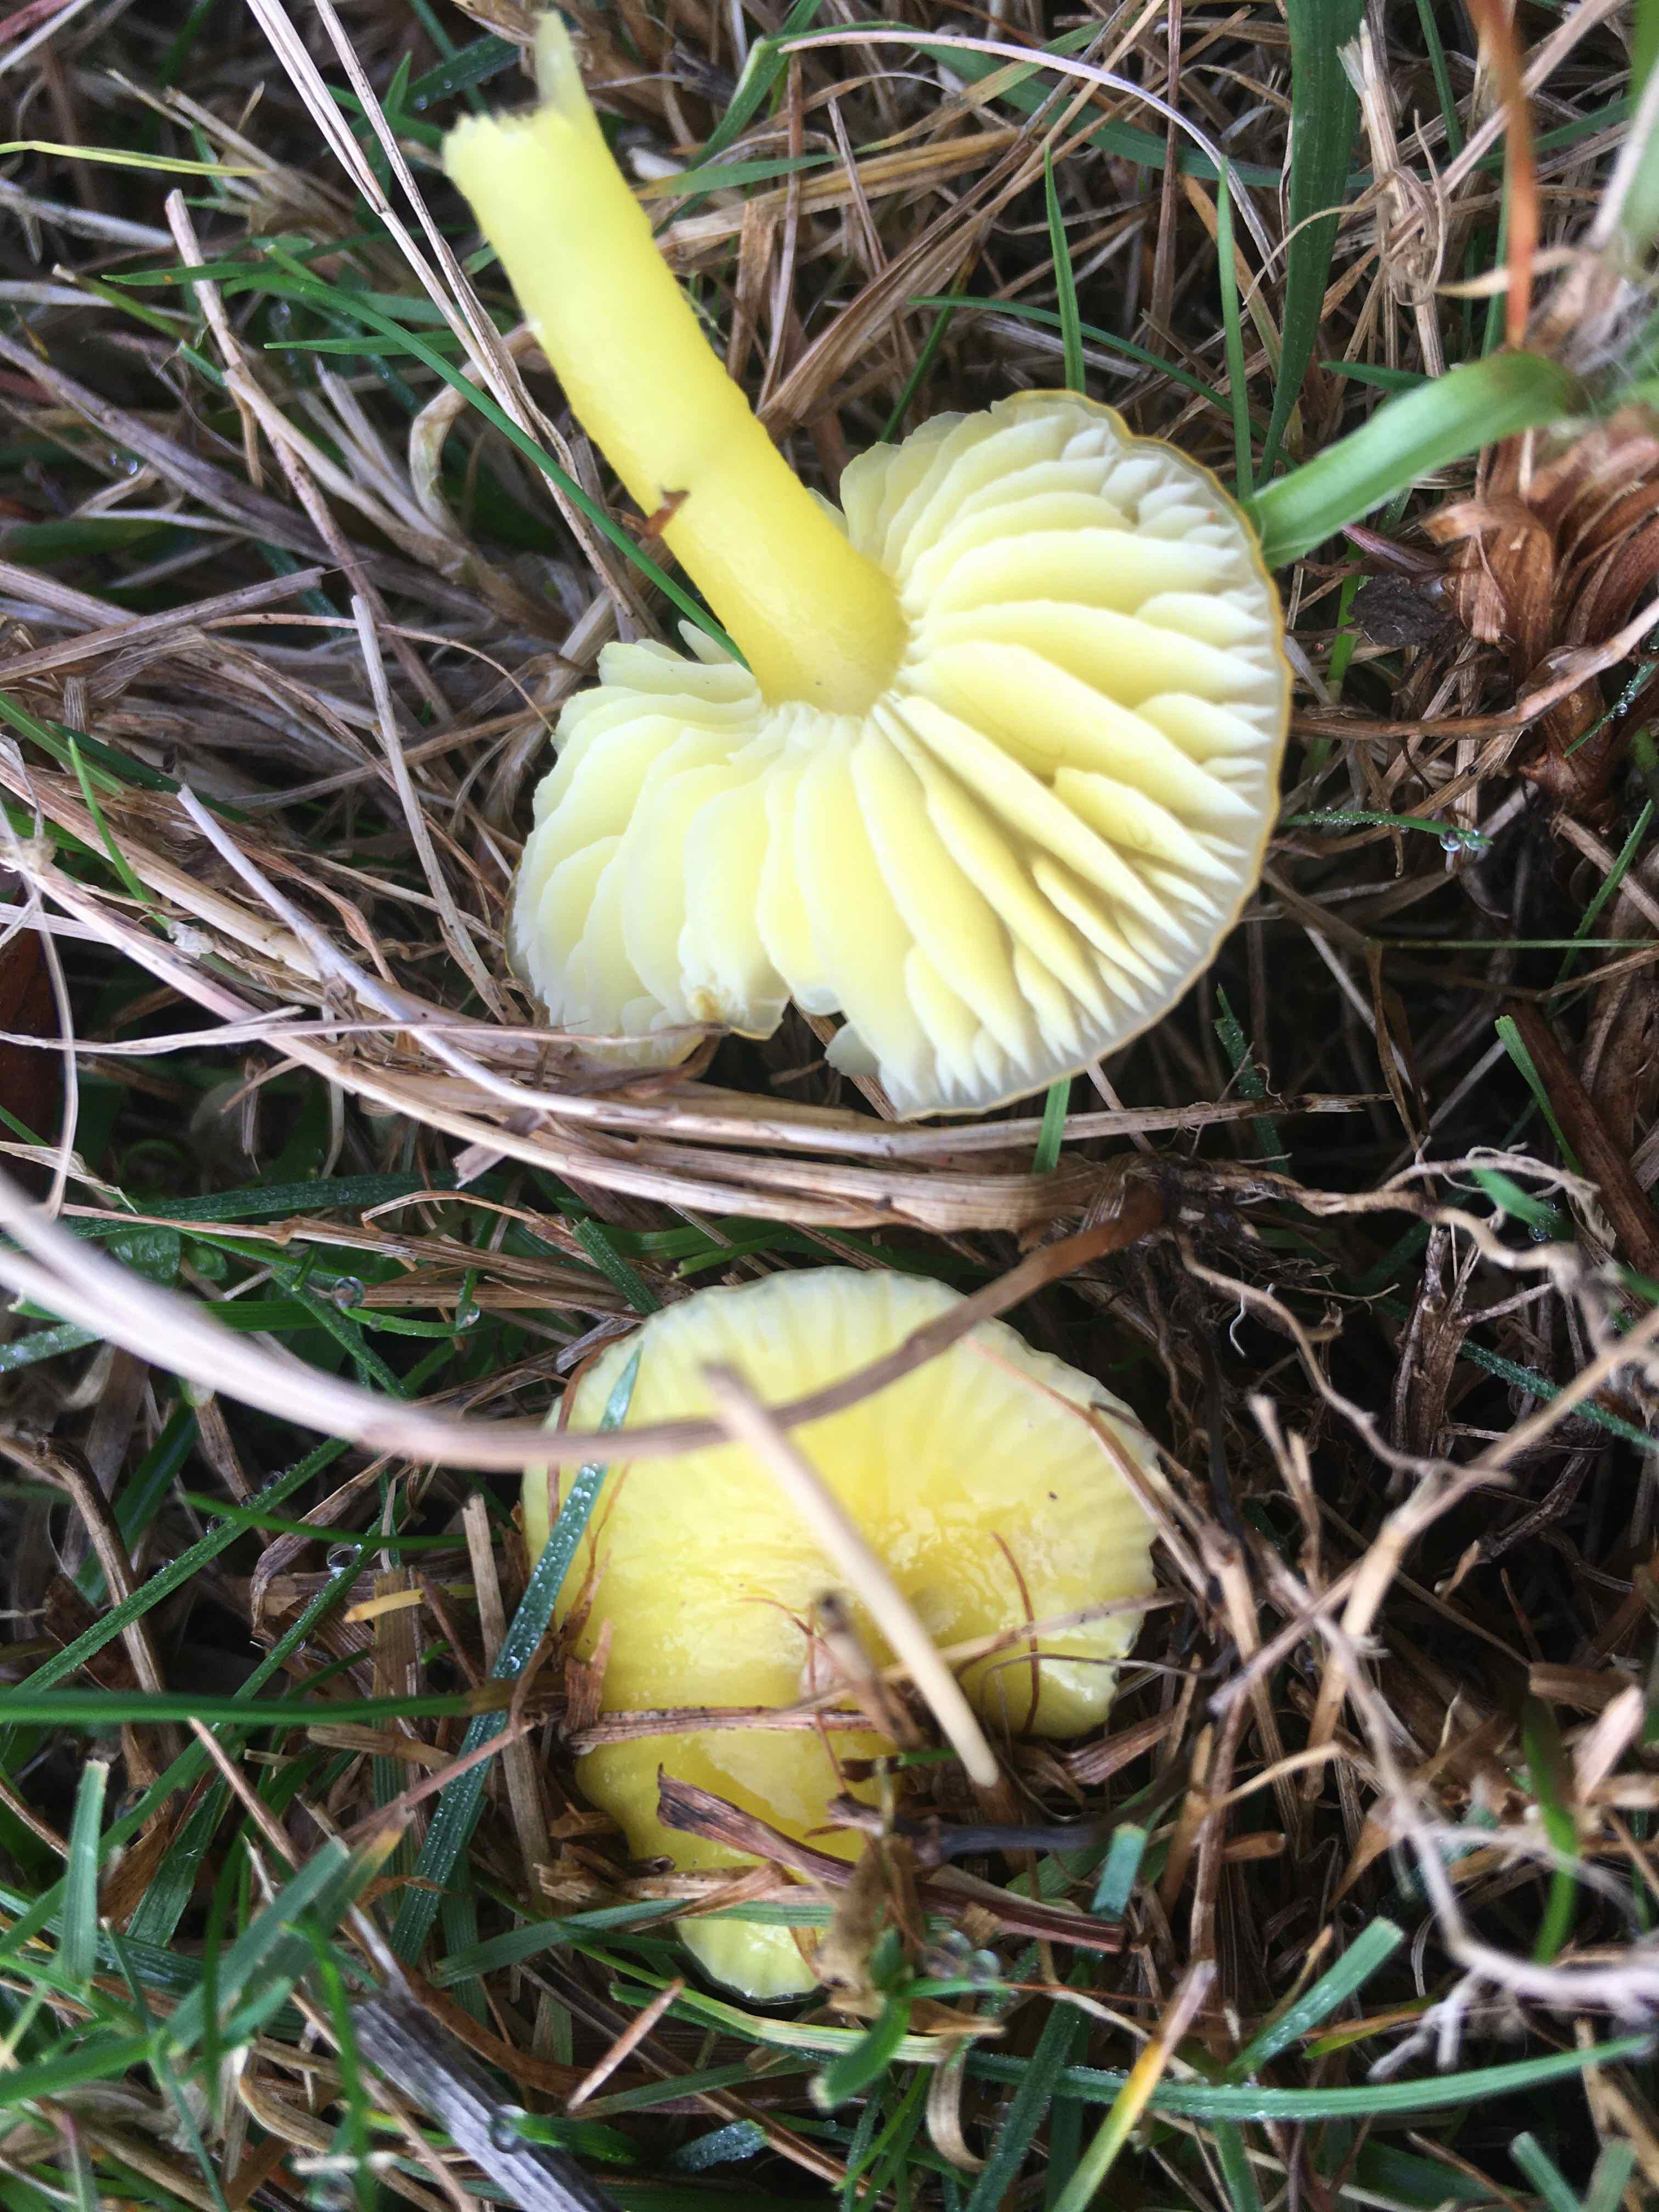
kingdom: Fungi
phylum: Basidiomycota
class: Agaricomycetes
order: Agaricales
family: Hygrophoraceae
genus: Hygrocybe
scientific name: Hygrocybe chlorophana
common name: gul vokshat
